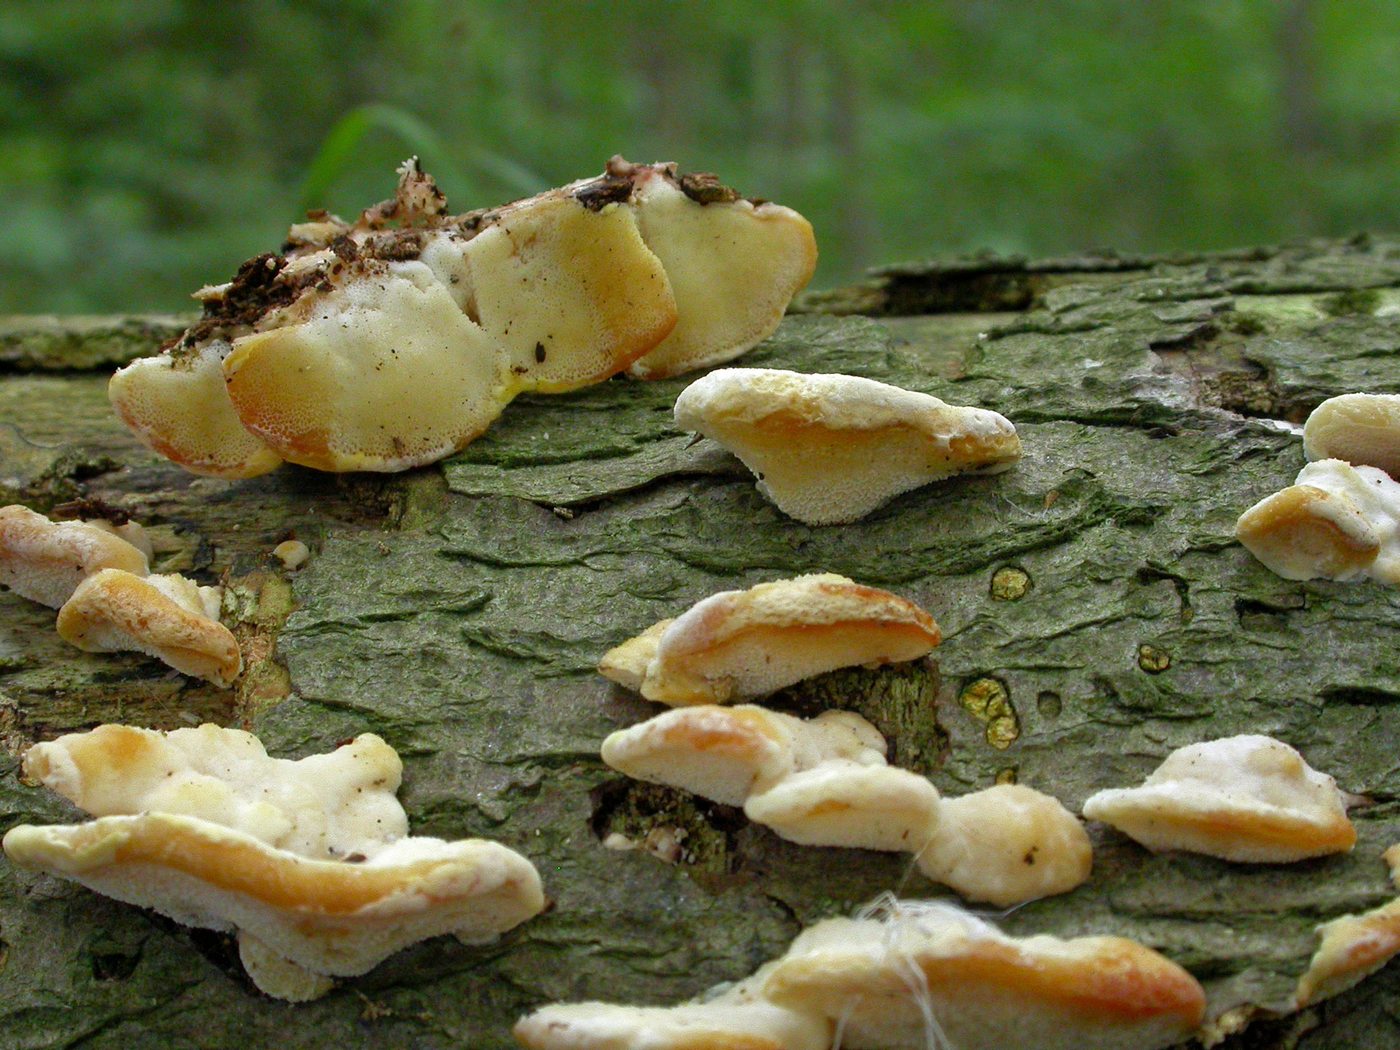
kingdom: Fungi
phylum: Basidiomycota
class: Agaricomycetes
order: Polyporales
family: Steccherinaceae
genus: Antrodiella
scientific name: Antrodiella serpula
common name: gulrandet elastikporesvamp
